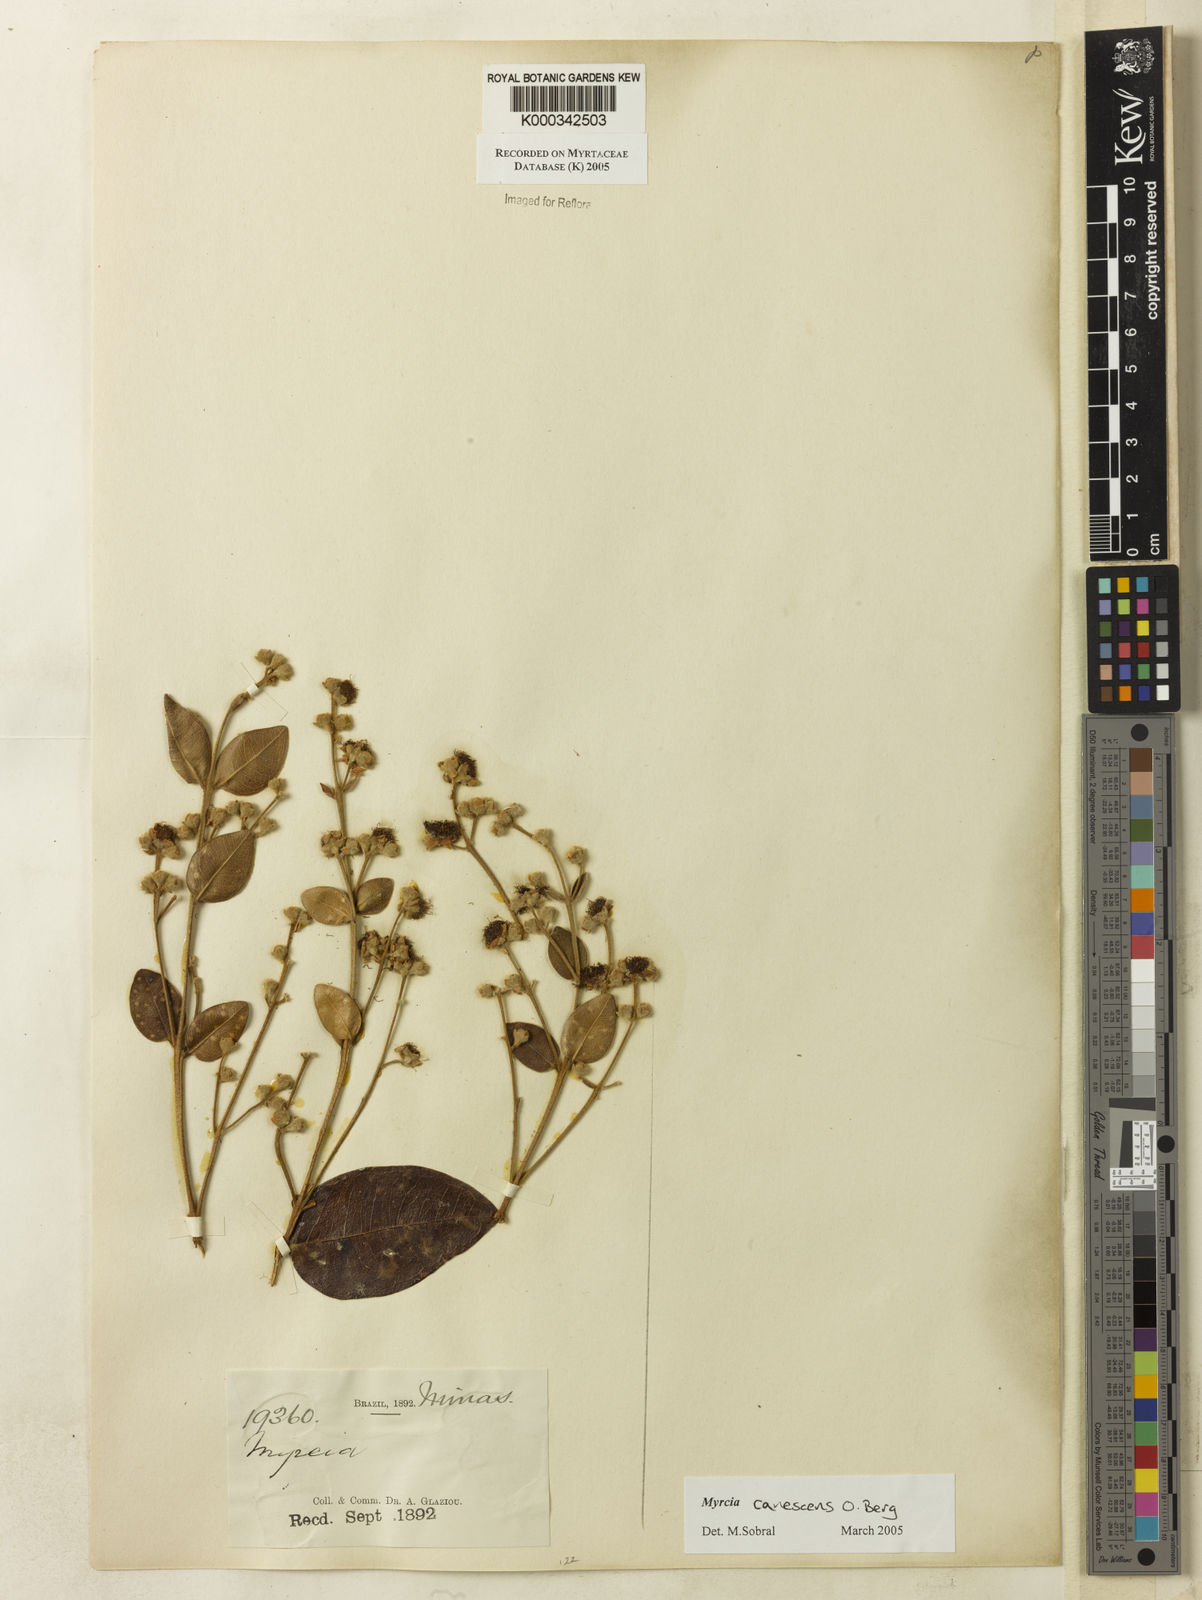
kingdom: Plantae
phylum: Tracheophyta
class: Magnoliopsida
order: Myrtales
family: Myrtaceae
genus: Myrcia
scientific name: Myrcia canescens
